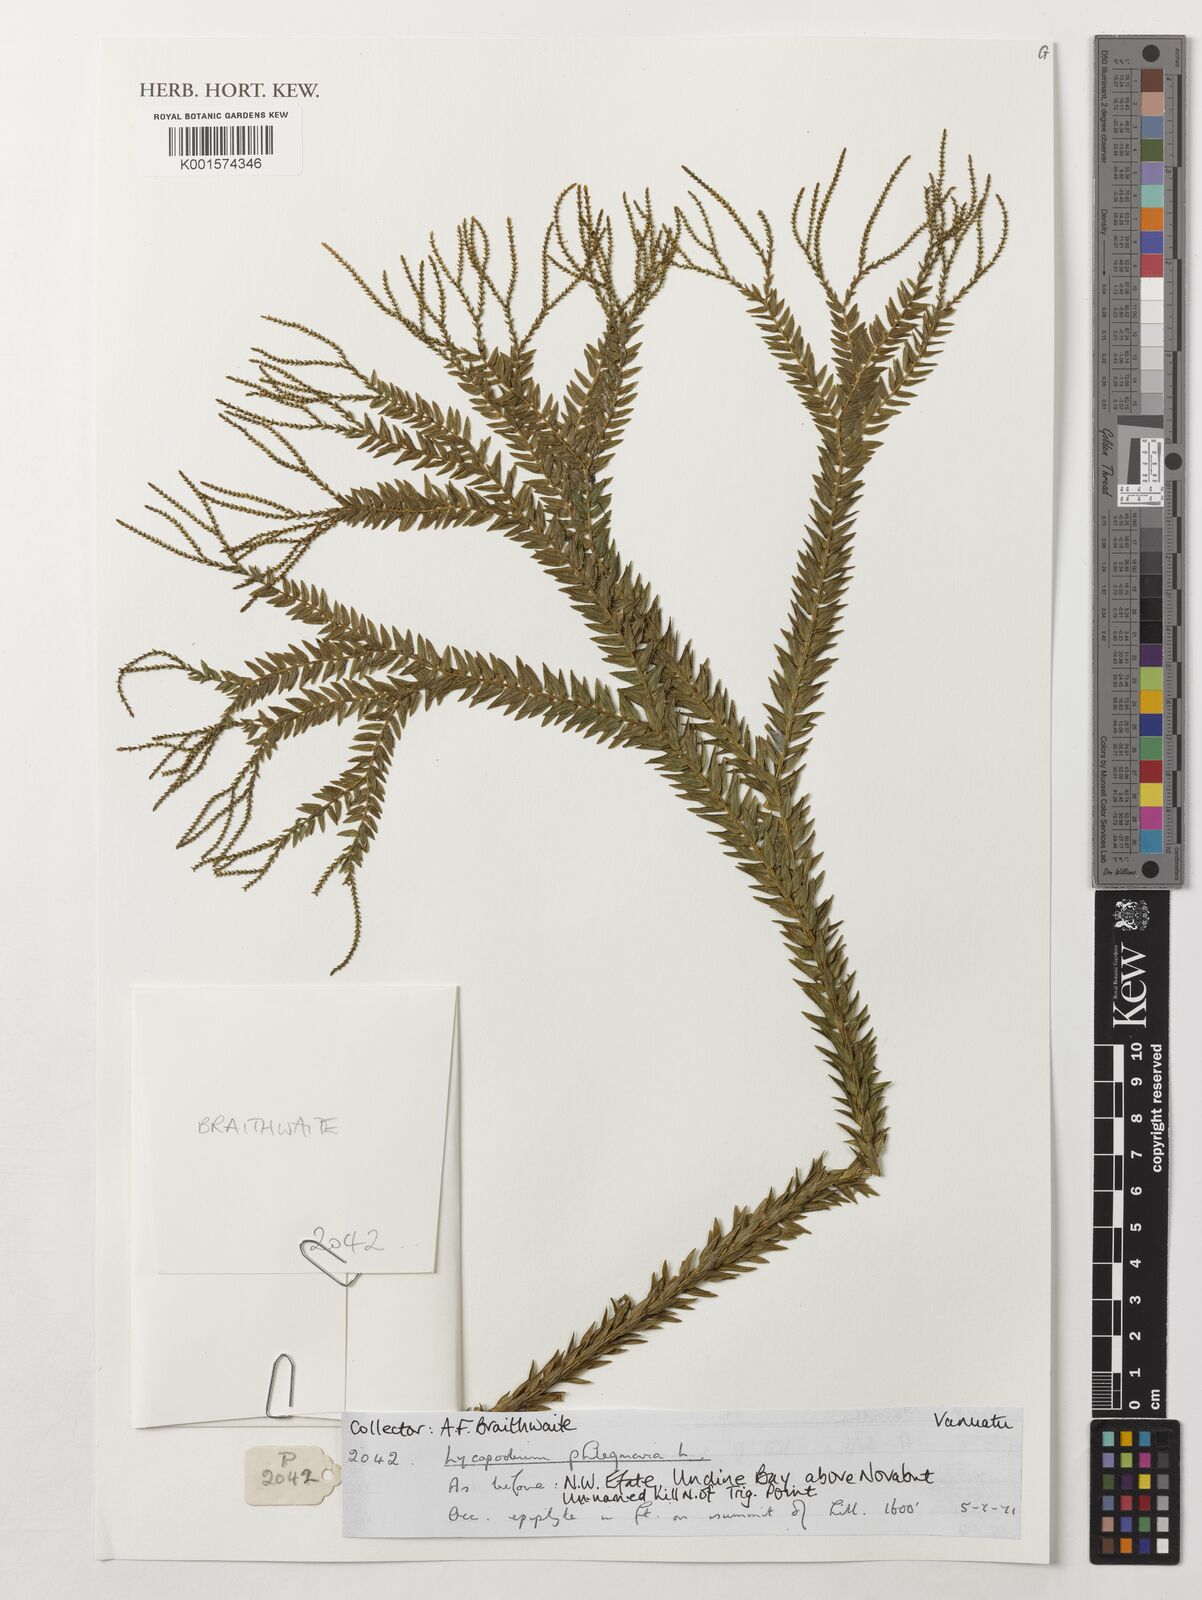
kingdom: Plantae
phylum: Tracheophyta
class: Lycopodiopsida
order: Lycopodiales
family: Lycopodiaceae
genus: Phlegmariurus
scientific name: Phlegmariurus phlegmaria
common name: Coarse tassel-fern
